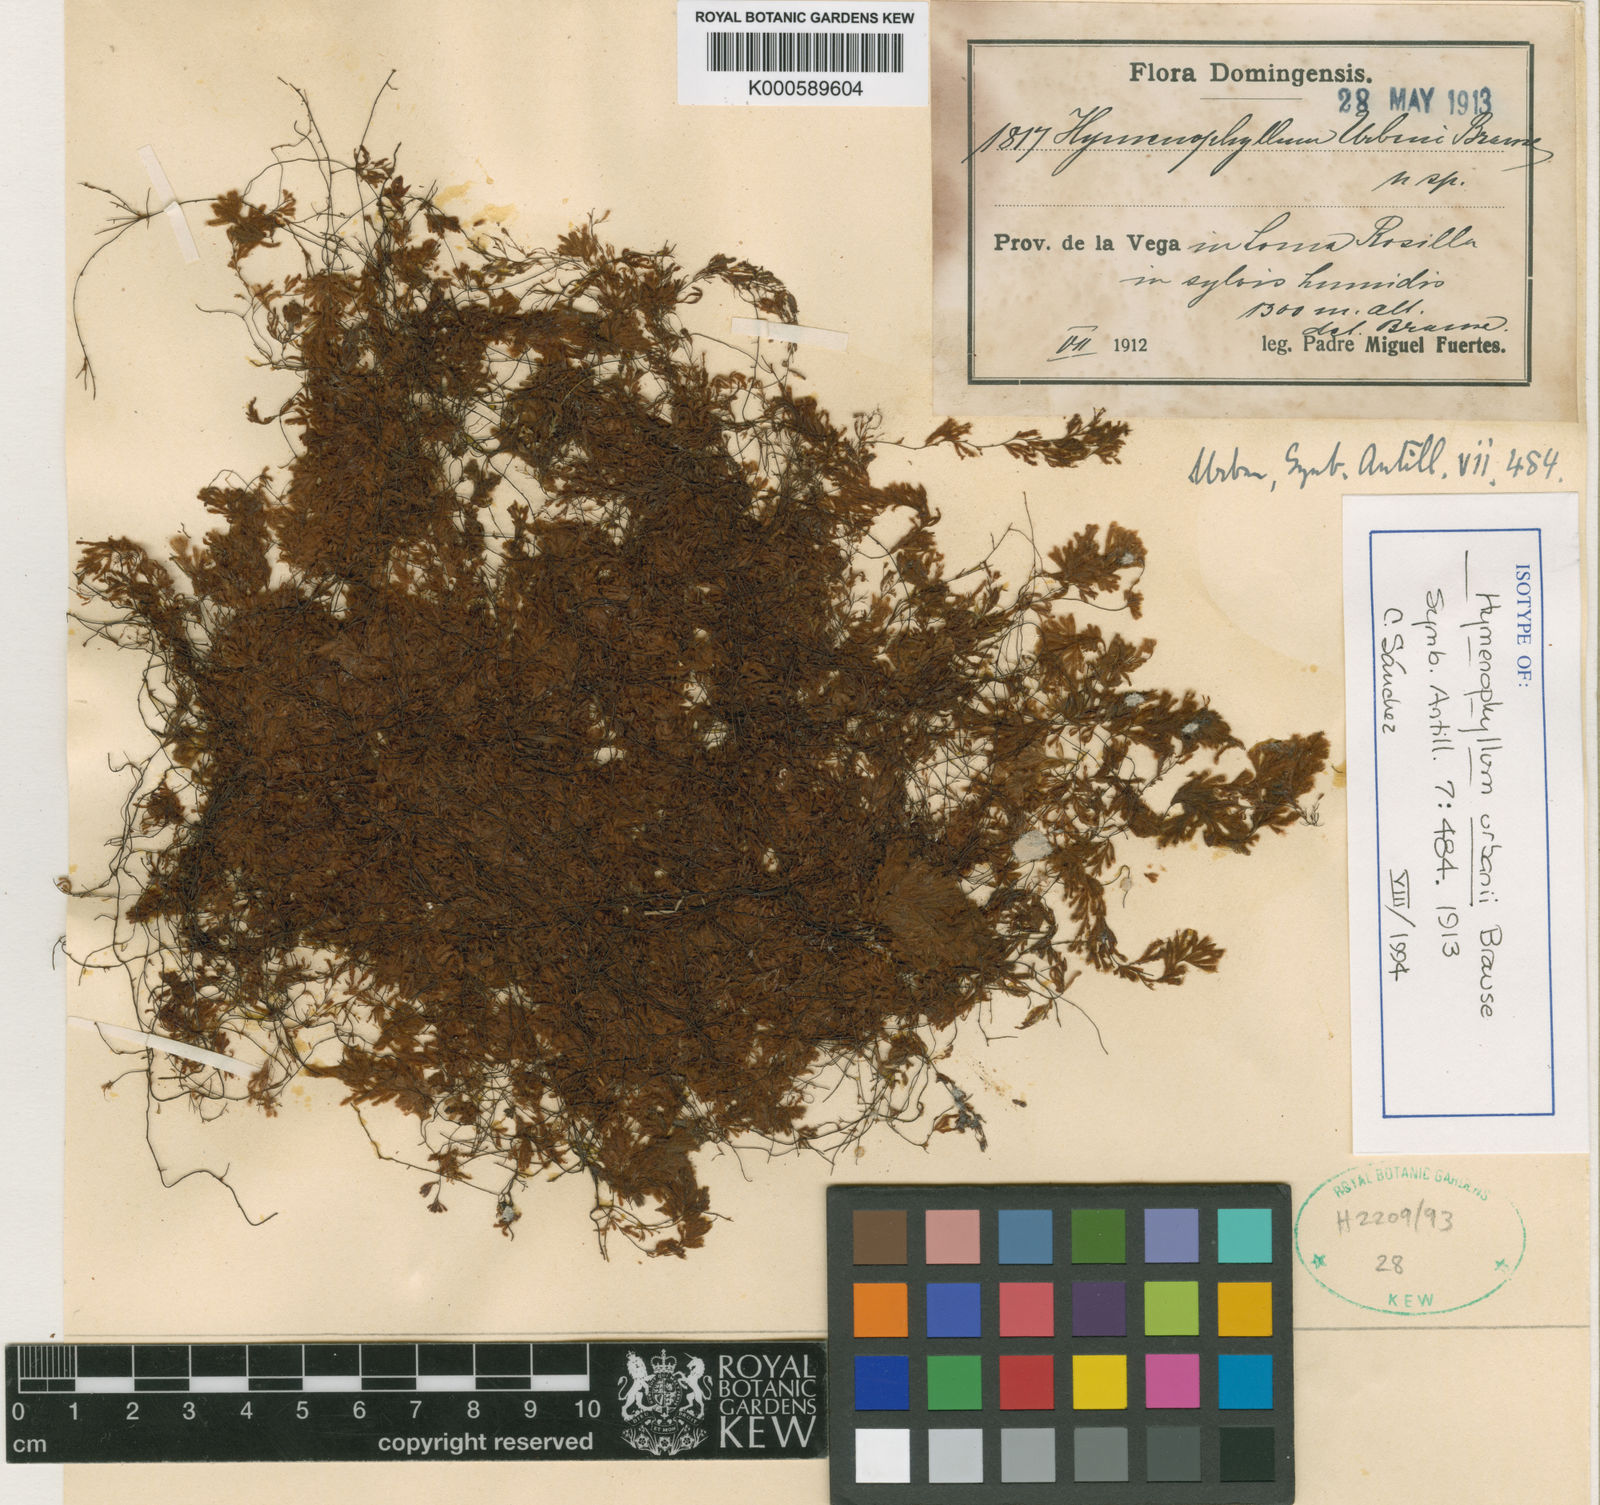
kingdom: Plantae
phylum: Tracheophyta
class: Polypodiopsida
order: Hymenophyllales
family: Hymenophyllaceae
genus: Hymenophyllum
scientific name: Hymenophyllum urbani
